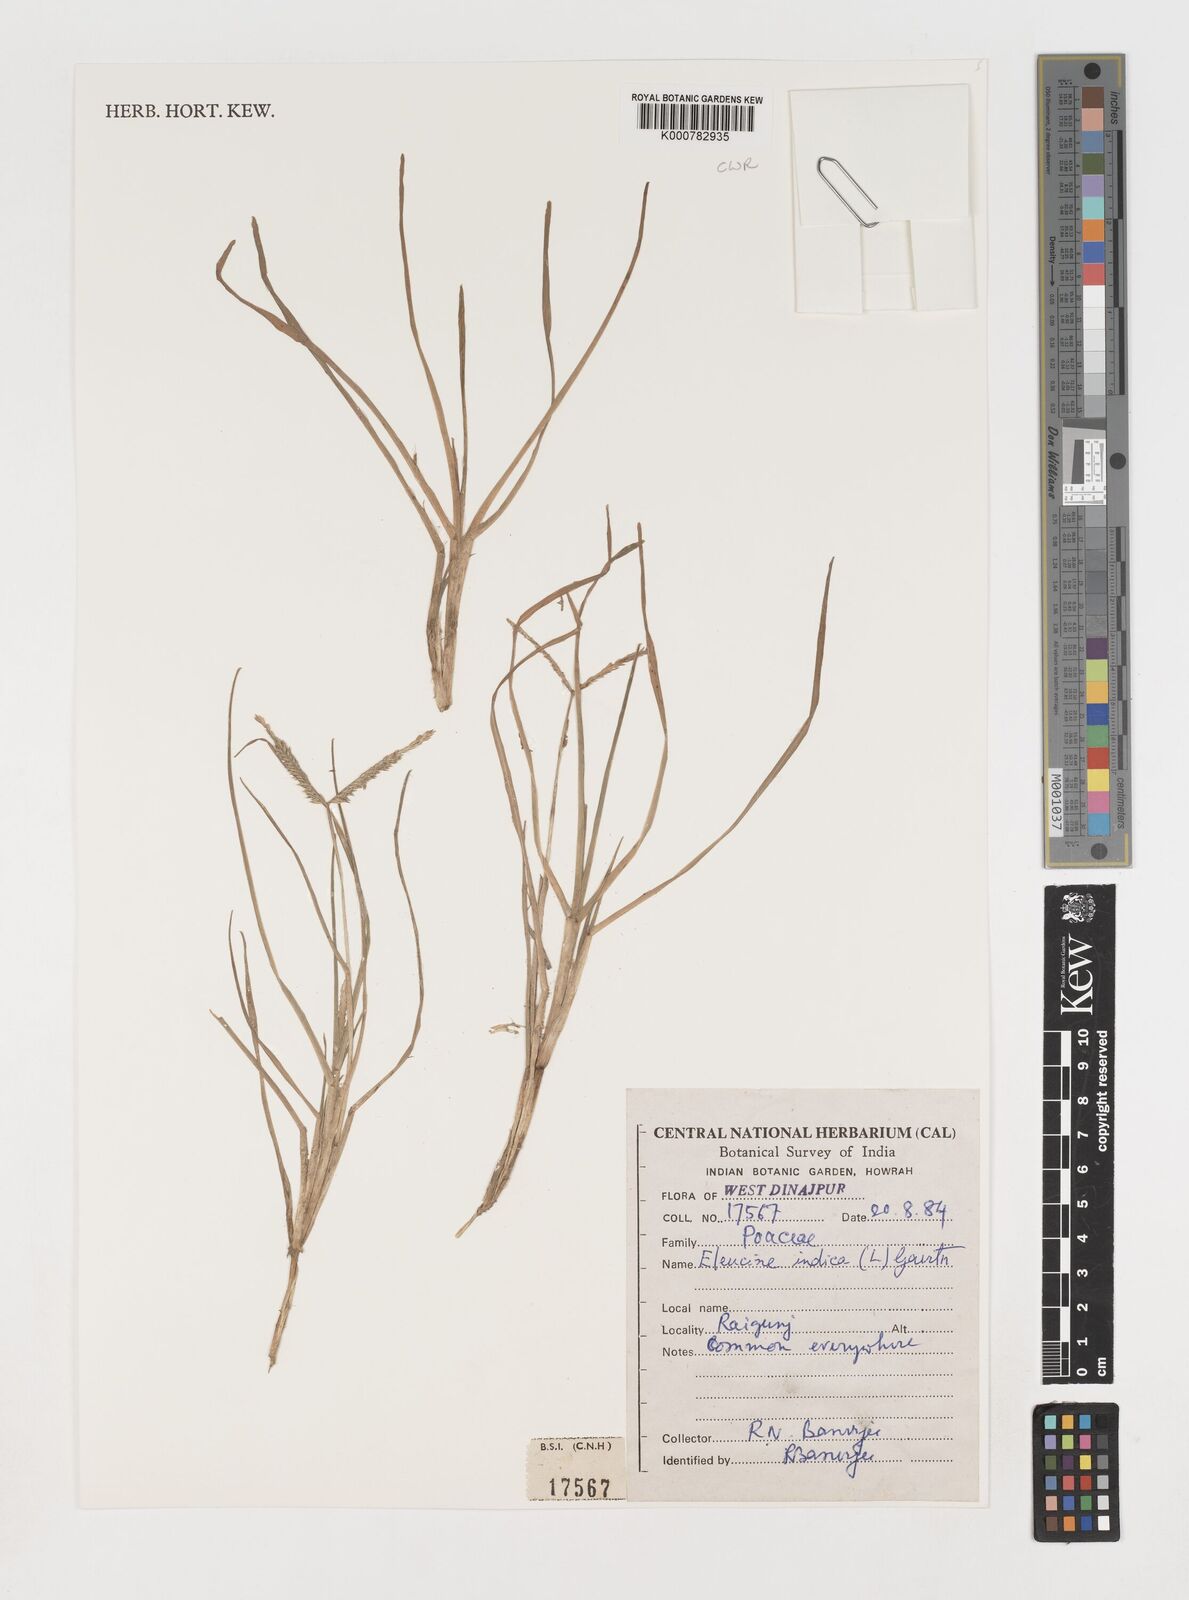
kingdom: Plantae
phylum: Tracheophyta
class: Liliopsida
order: Poales
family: Poaceae
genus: Eleusine
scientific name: Eleusine indica
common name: Yard-grass
